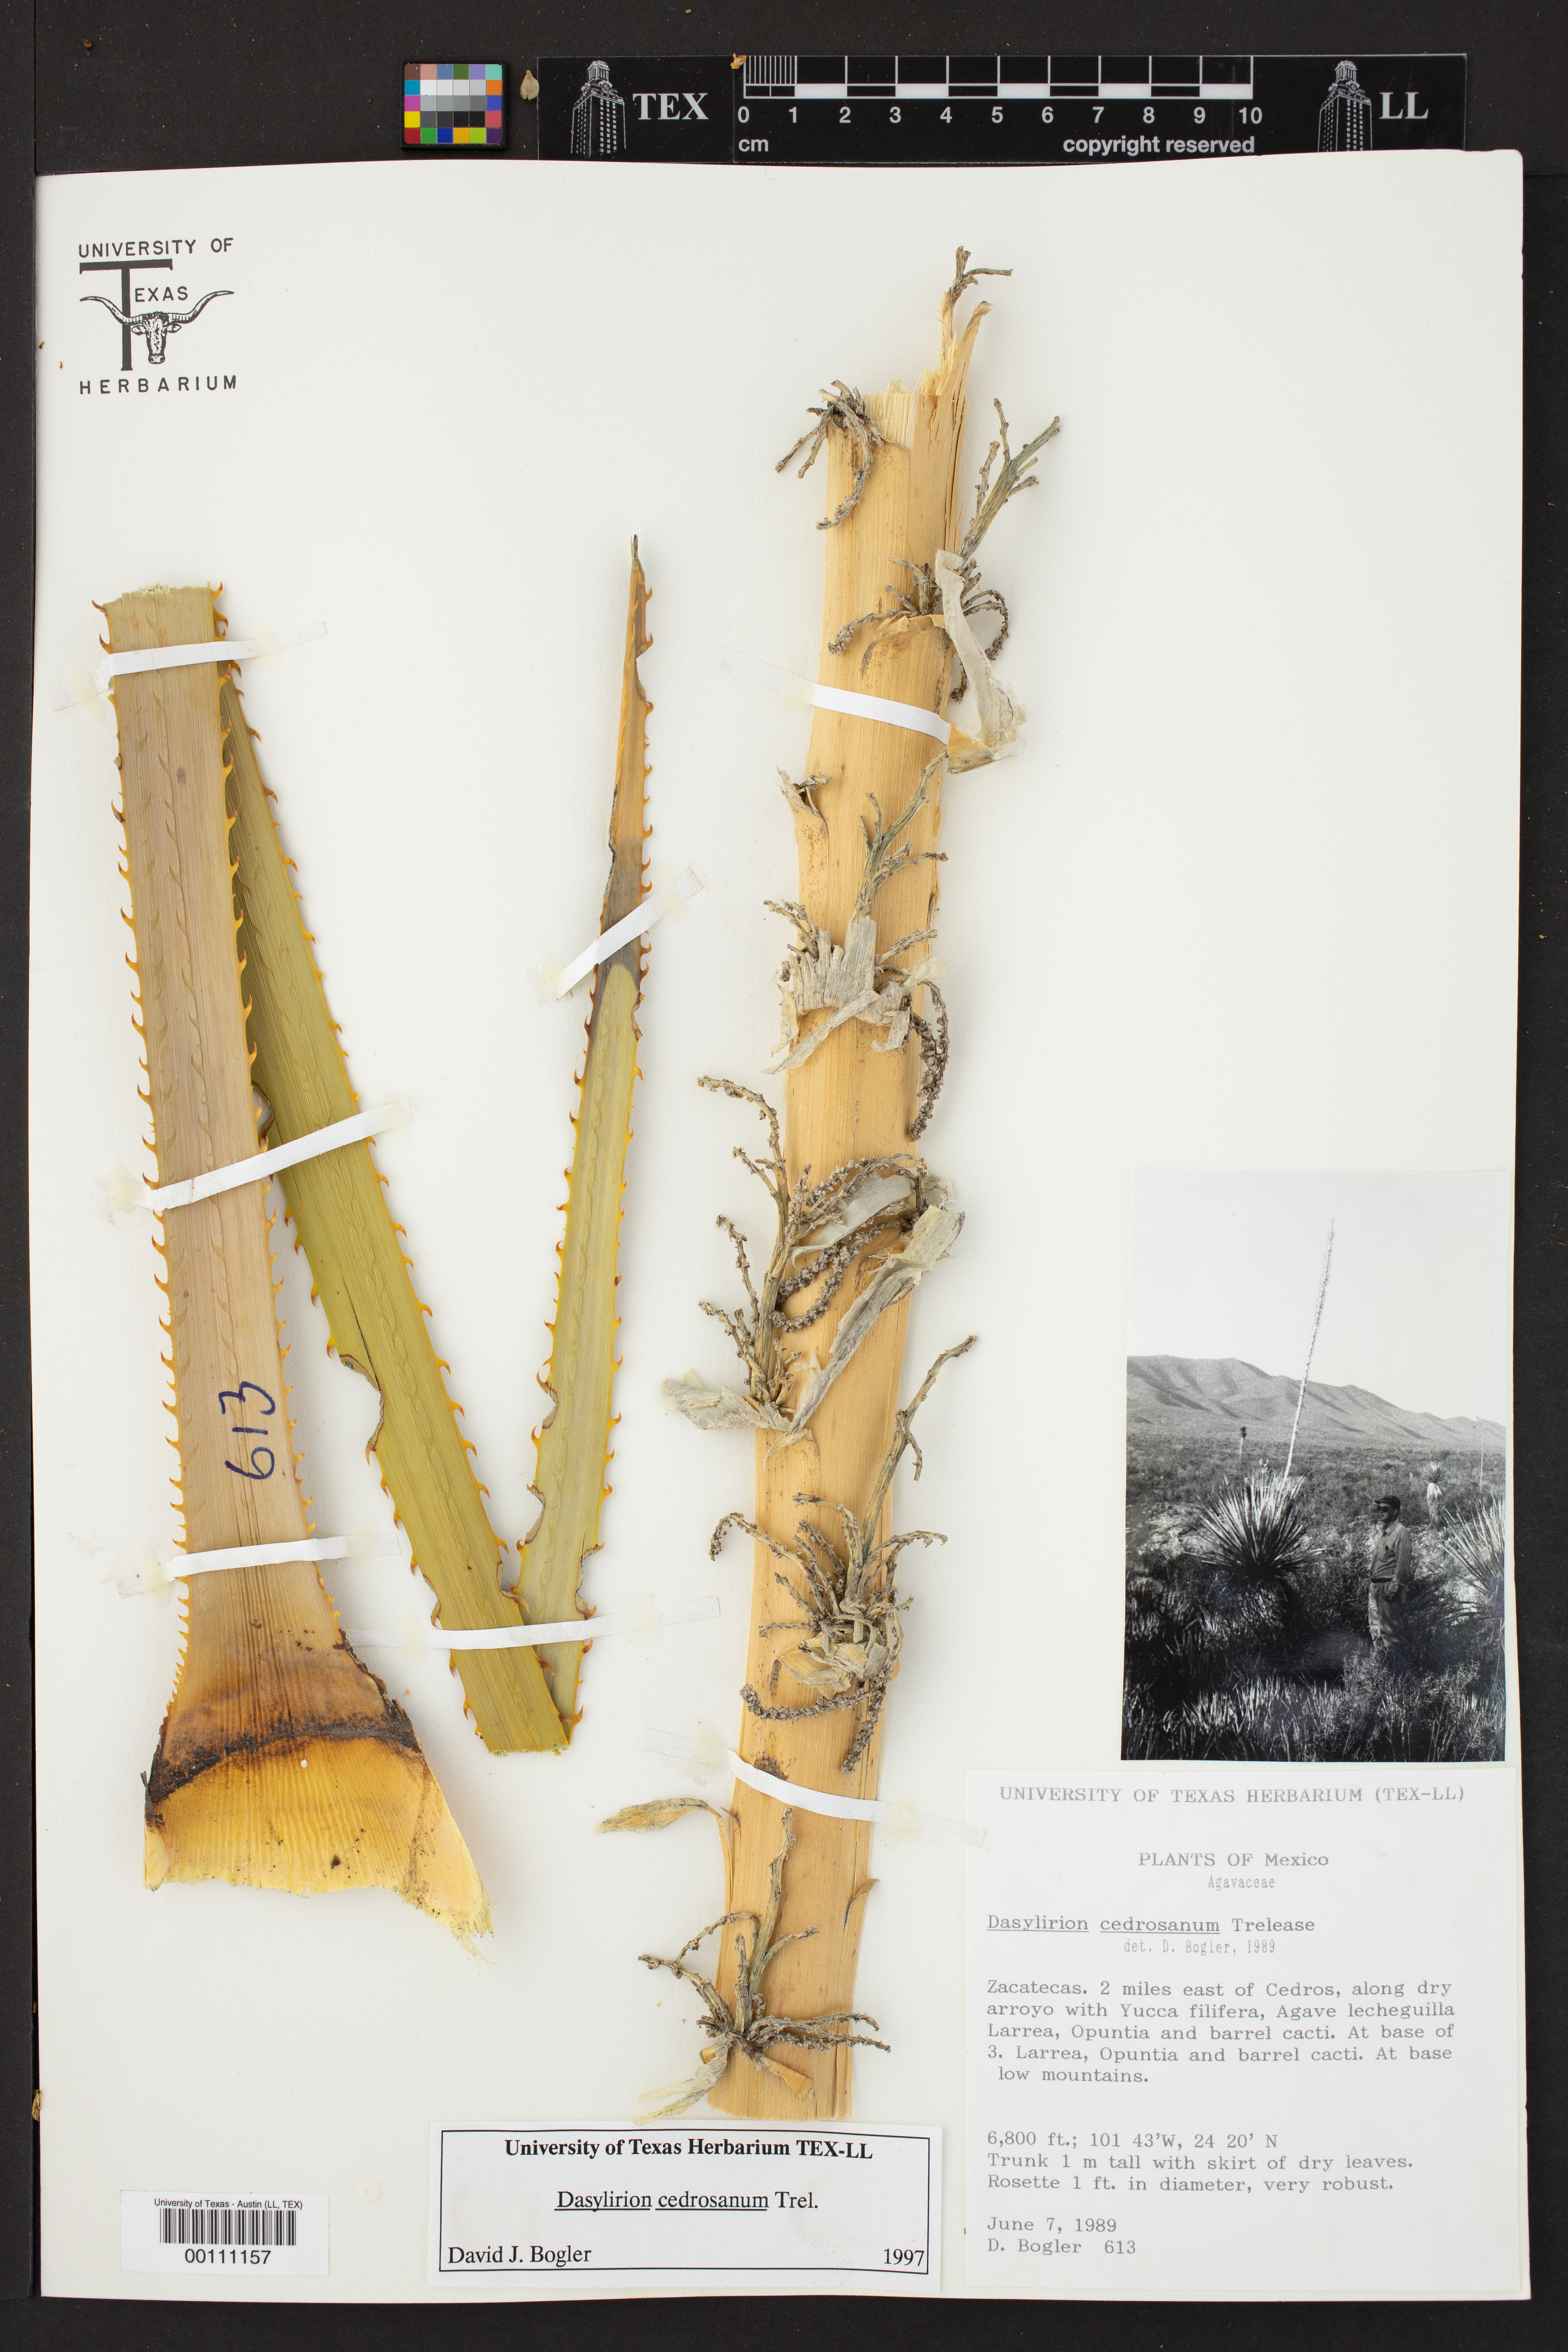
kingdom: Plantae
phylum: Tracheophyta
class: Liliopsida
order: Asparagales
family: Asparagaceae
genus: Dasylirion
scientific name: Dasylirion cedrosanum
